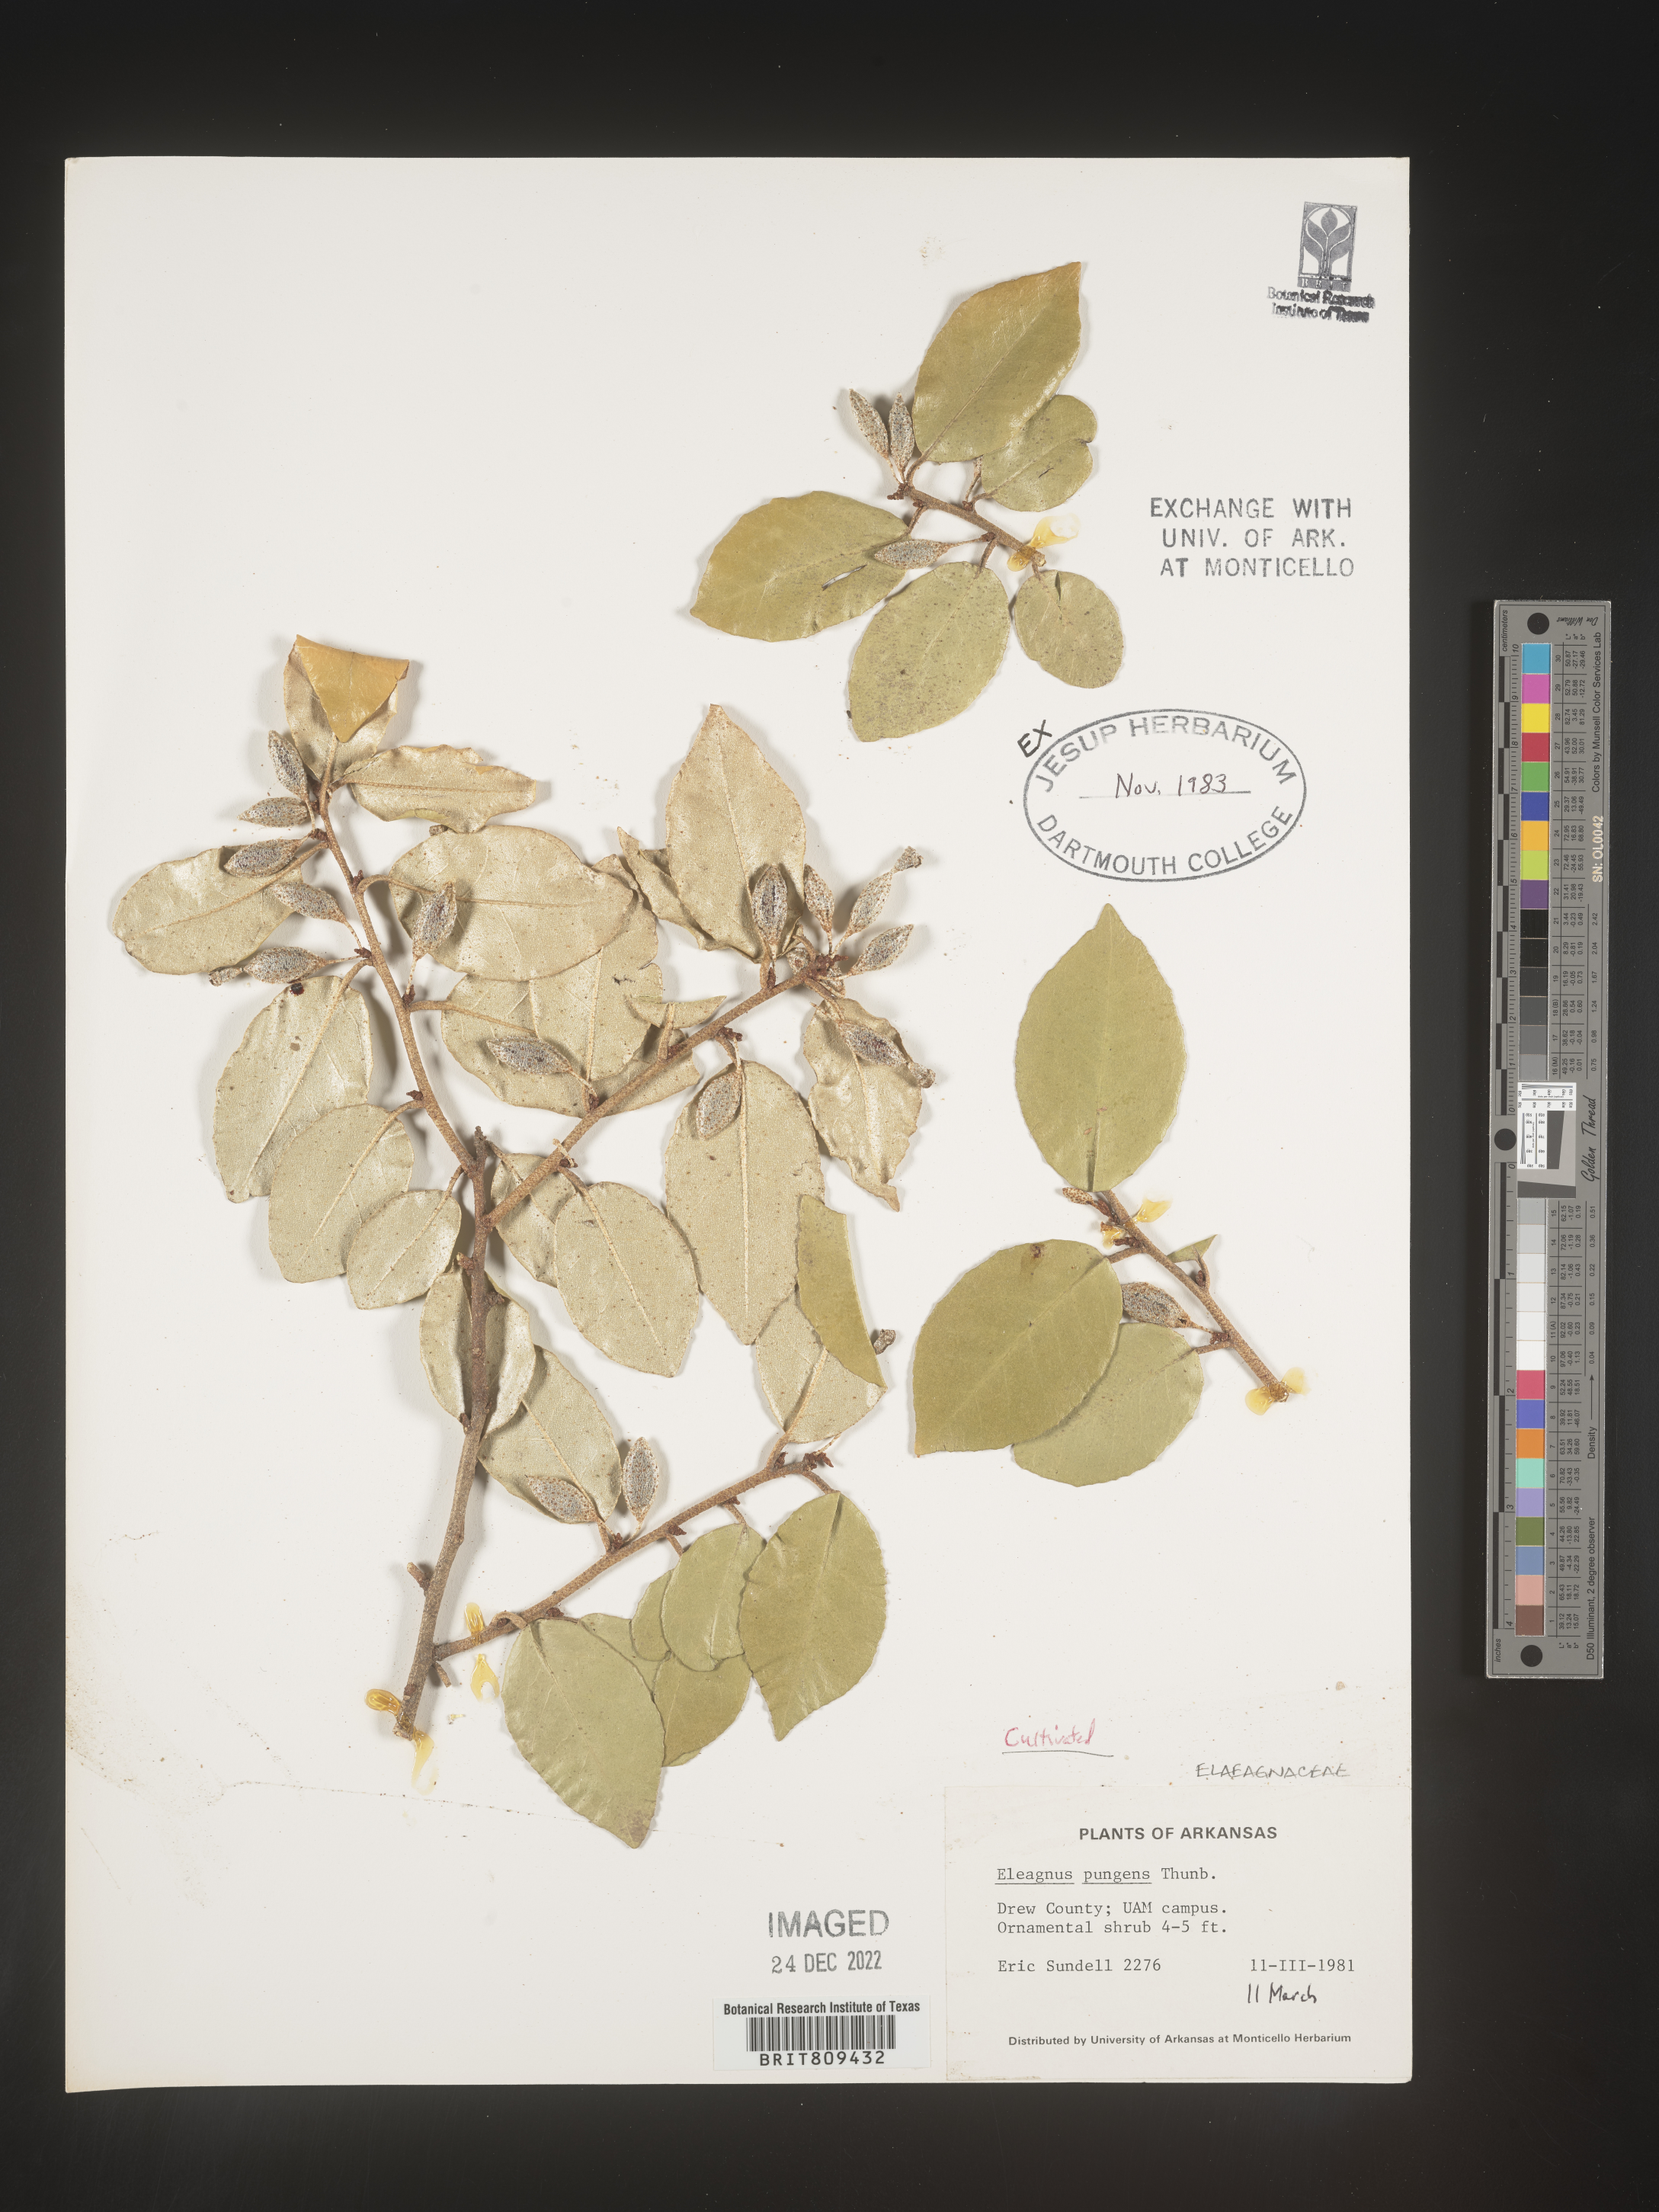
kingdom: Plantae
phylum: Tracheophyta
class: Magnoliopsida
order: Rosales
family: Elaeagnaceae
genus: Elaeagnus
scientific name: Elaeagnus
